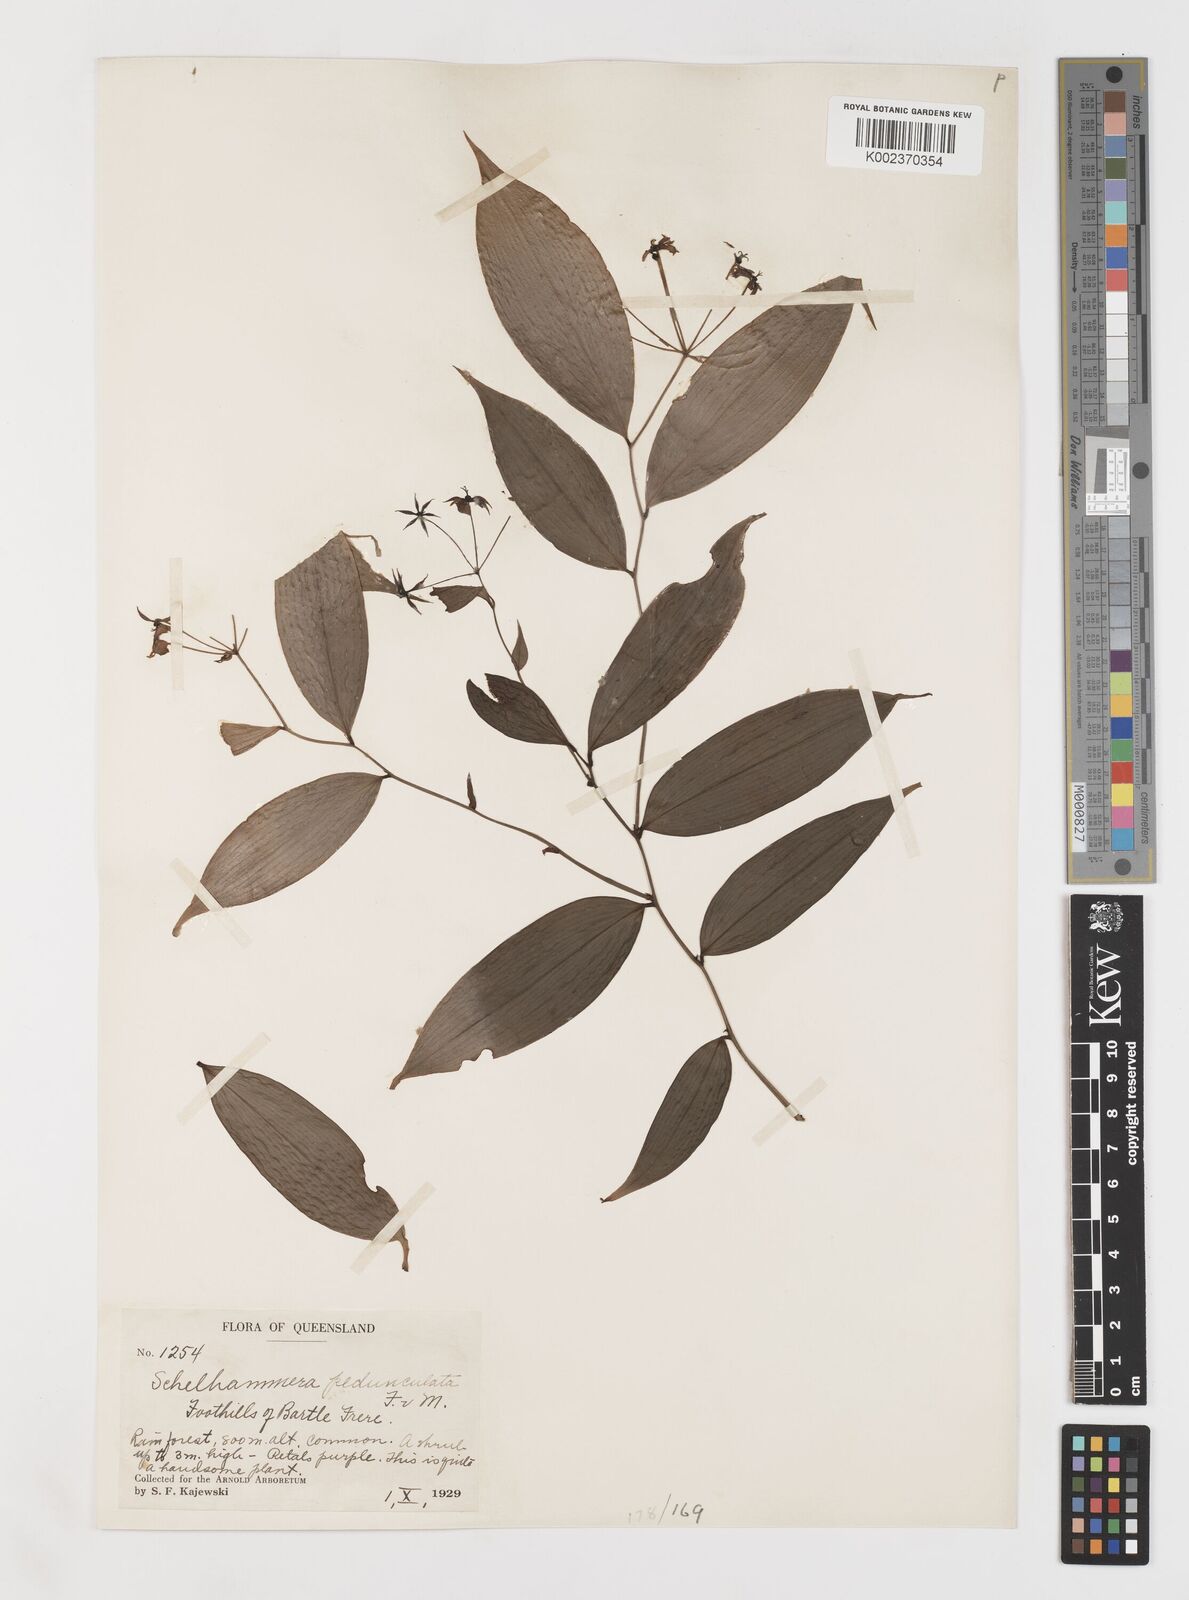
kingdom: Plantae
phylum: Tracheophyta
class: Liliopsida
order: Liliales
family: Colchicaceae
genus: Kuntheria
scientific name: Kuntheria pedunculata
